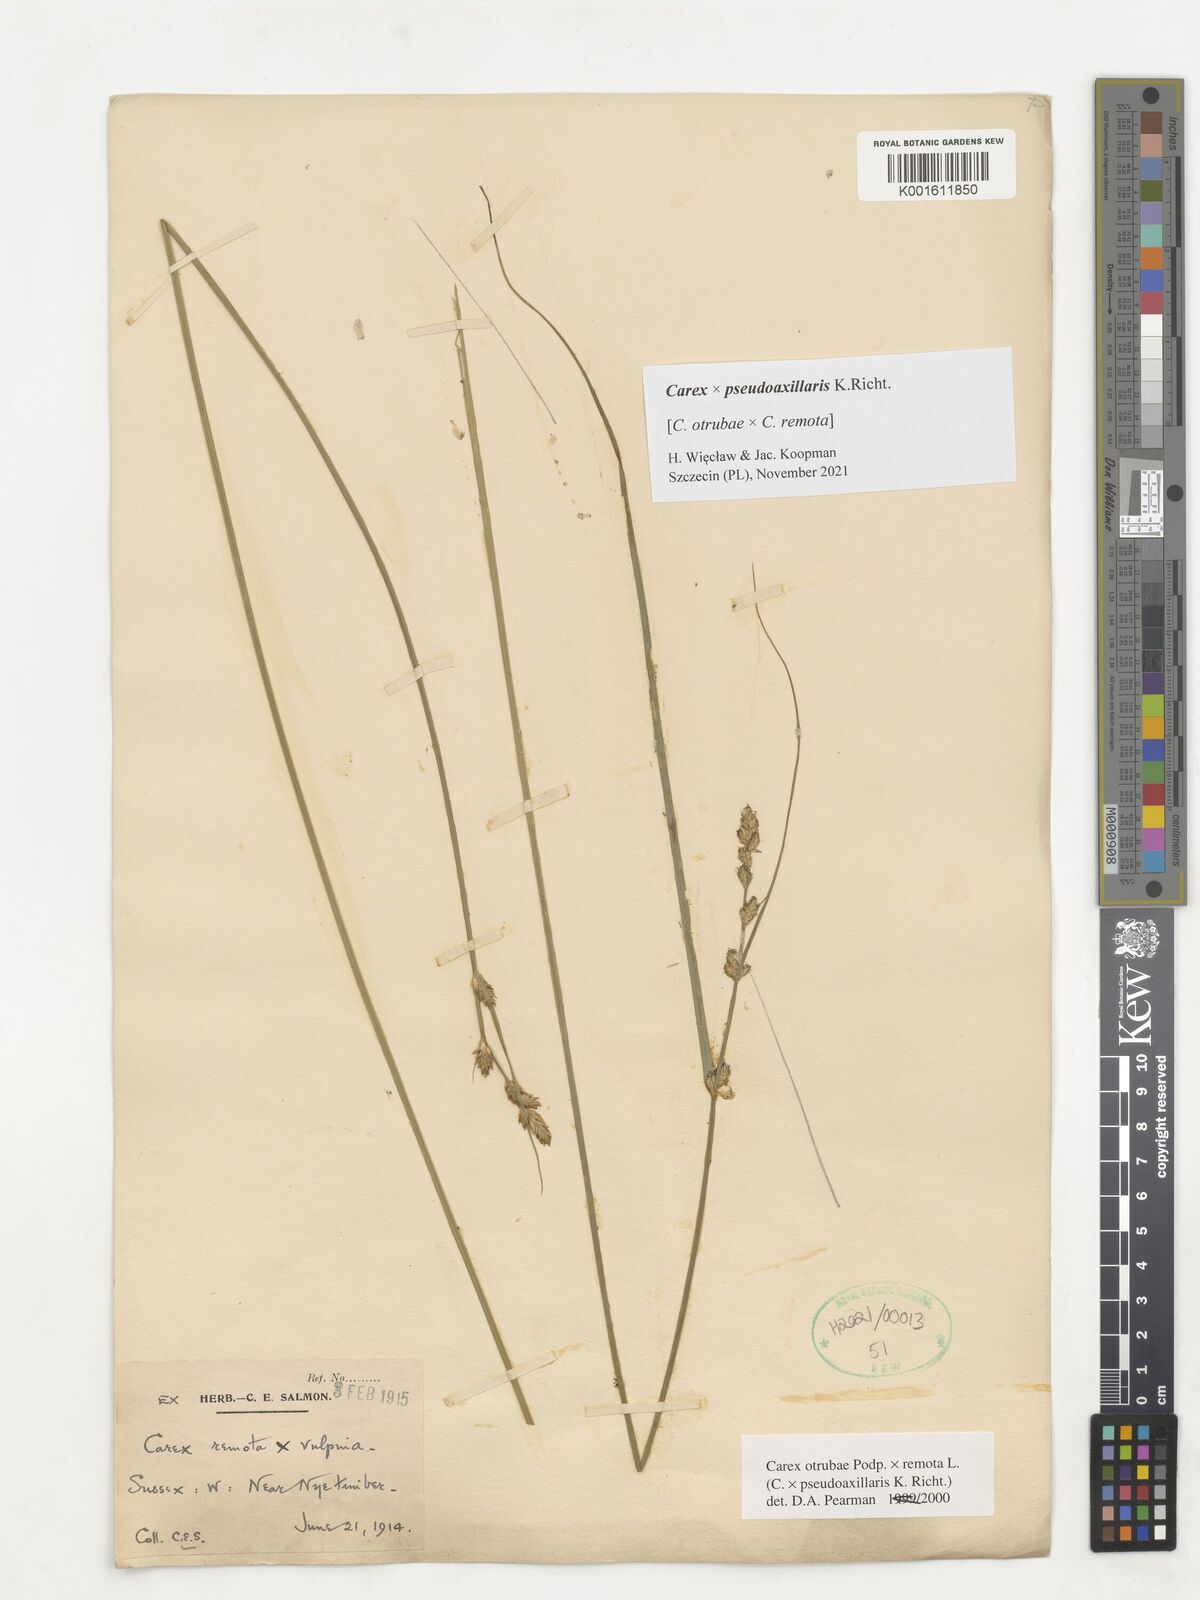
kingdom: Plantae
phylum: Tracheophyta
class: Liliopsida
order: Poales
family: Cyperaceae
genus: Carex
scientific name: Carex pseudoaxillaris
